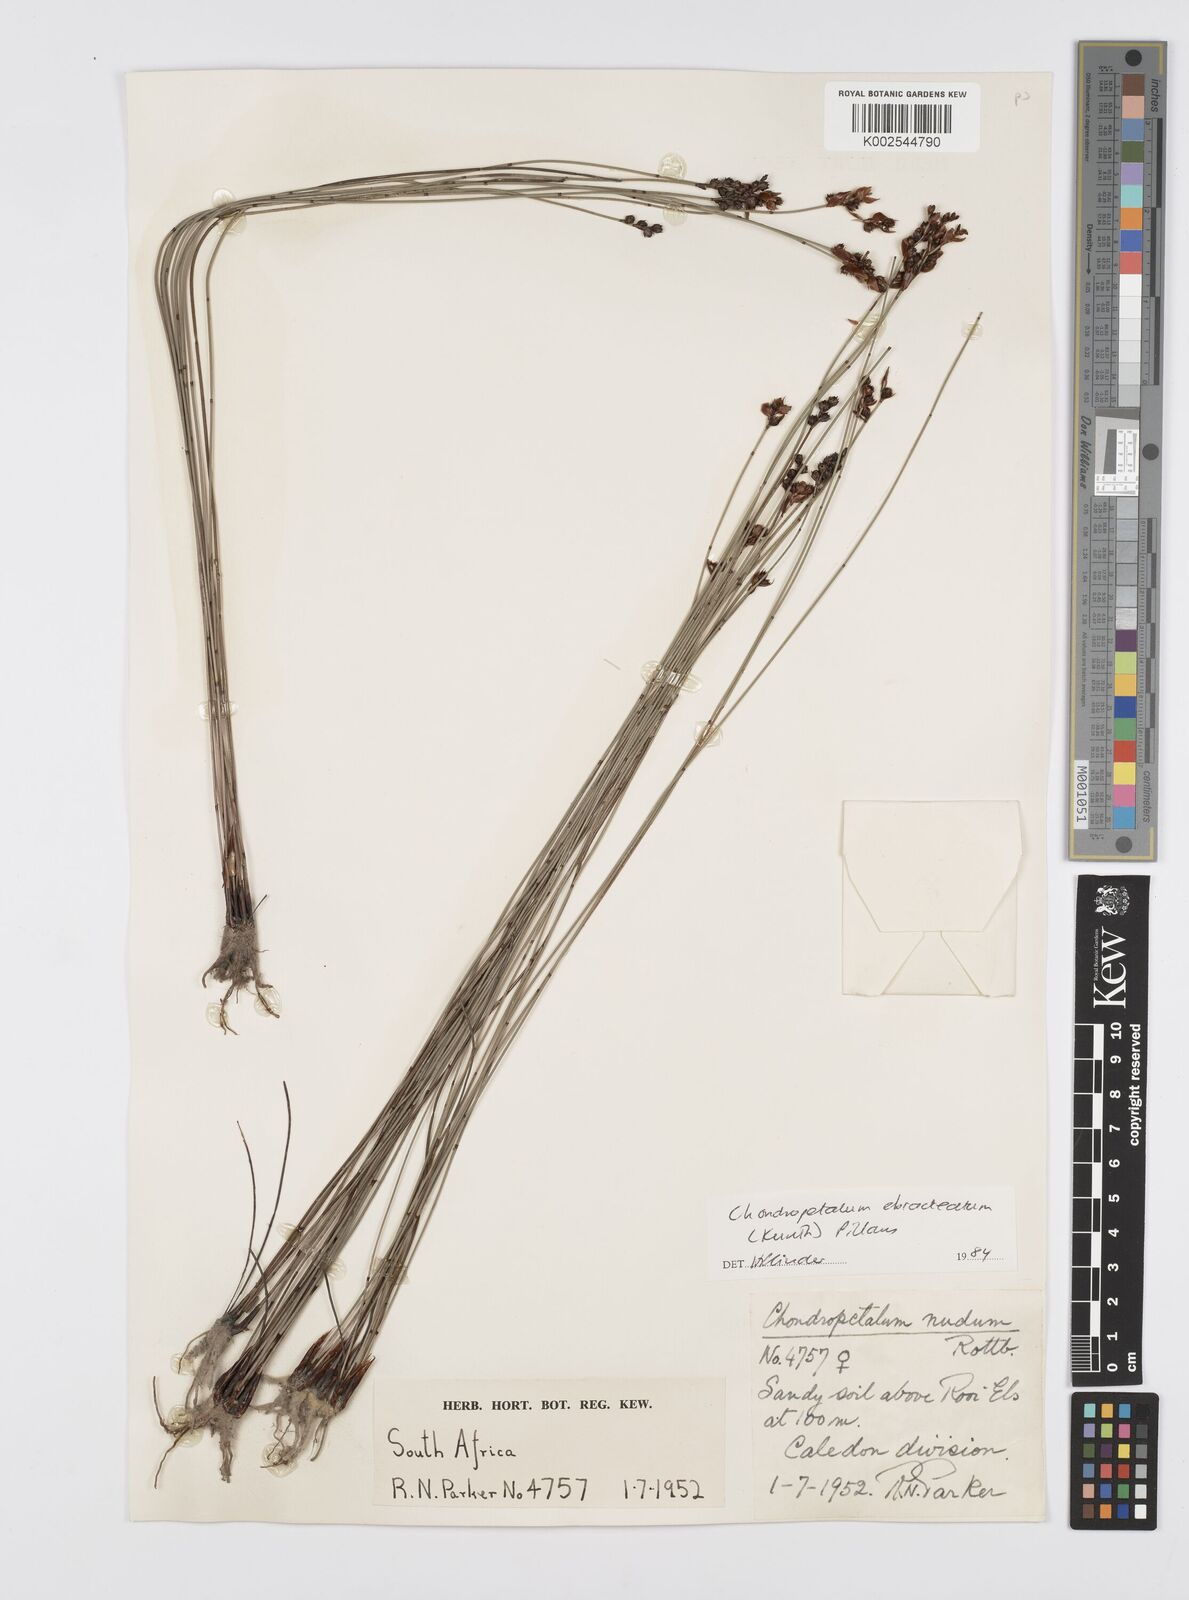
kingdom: Plantae
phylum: Tracheophyta
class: Liliopsida
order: Poales
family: Restionaceae
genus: Elegia
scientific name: Elegia hookeriana
